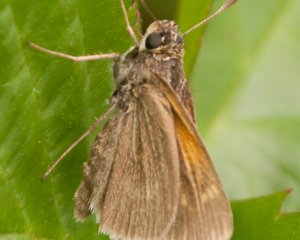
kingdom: Animalia
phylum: Arthropoda
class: Insecta
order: Lepidoptera
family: Hesperiidae
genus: Polites
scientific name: Polites themistocles
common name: Tawny-edged Skipper
